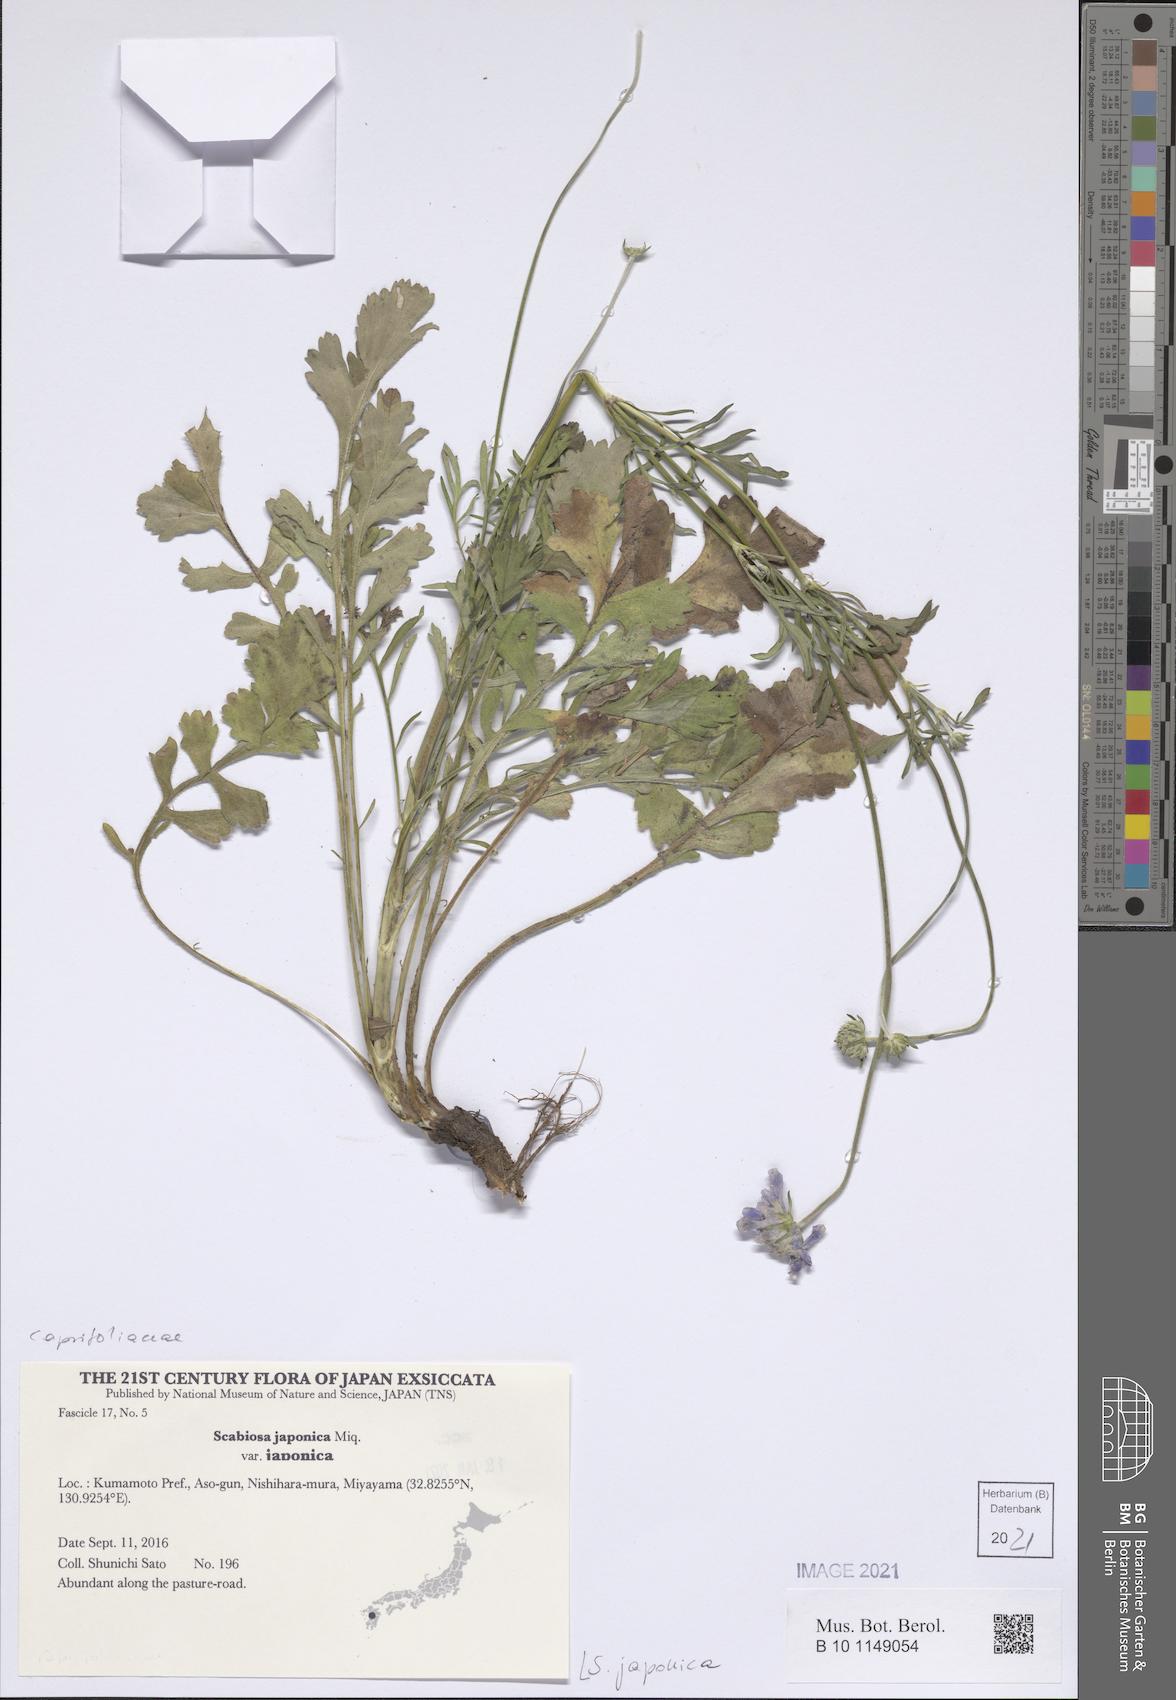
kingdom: Plantae
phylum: Tracheophyta
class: Magnoliopsida
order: Dipsacales
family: Caprifoliaceae
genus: Scabiosa
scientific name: Scabiosa japonica
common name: Pincushion-flower
